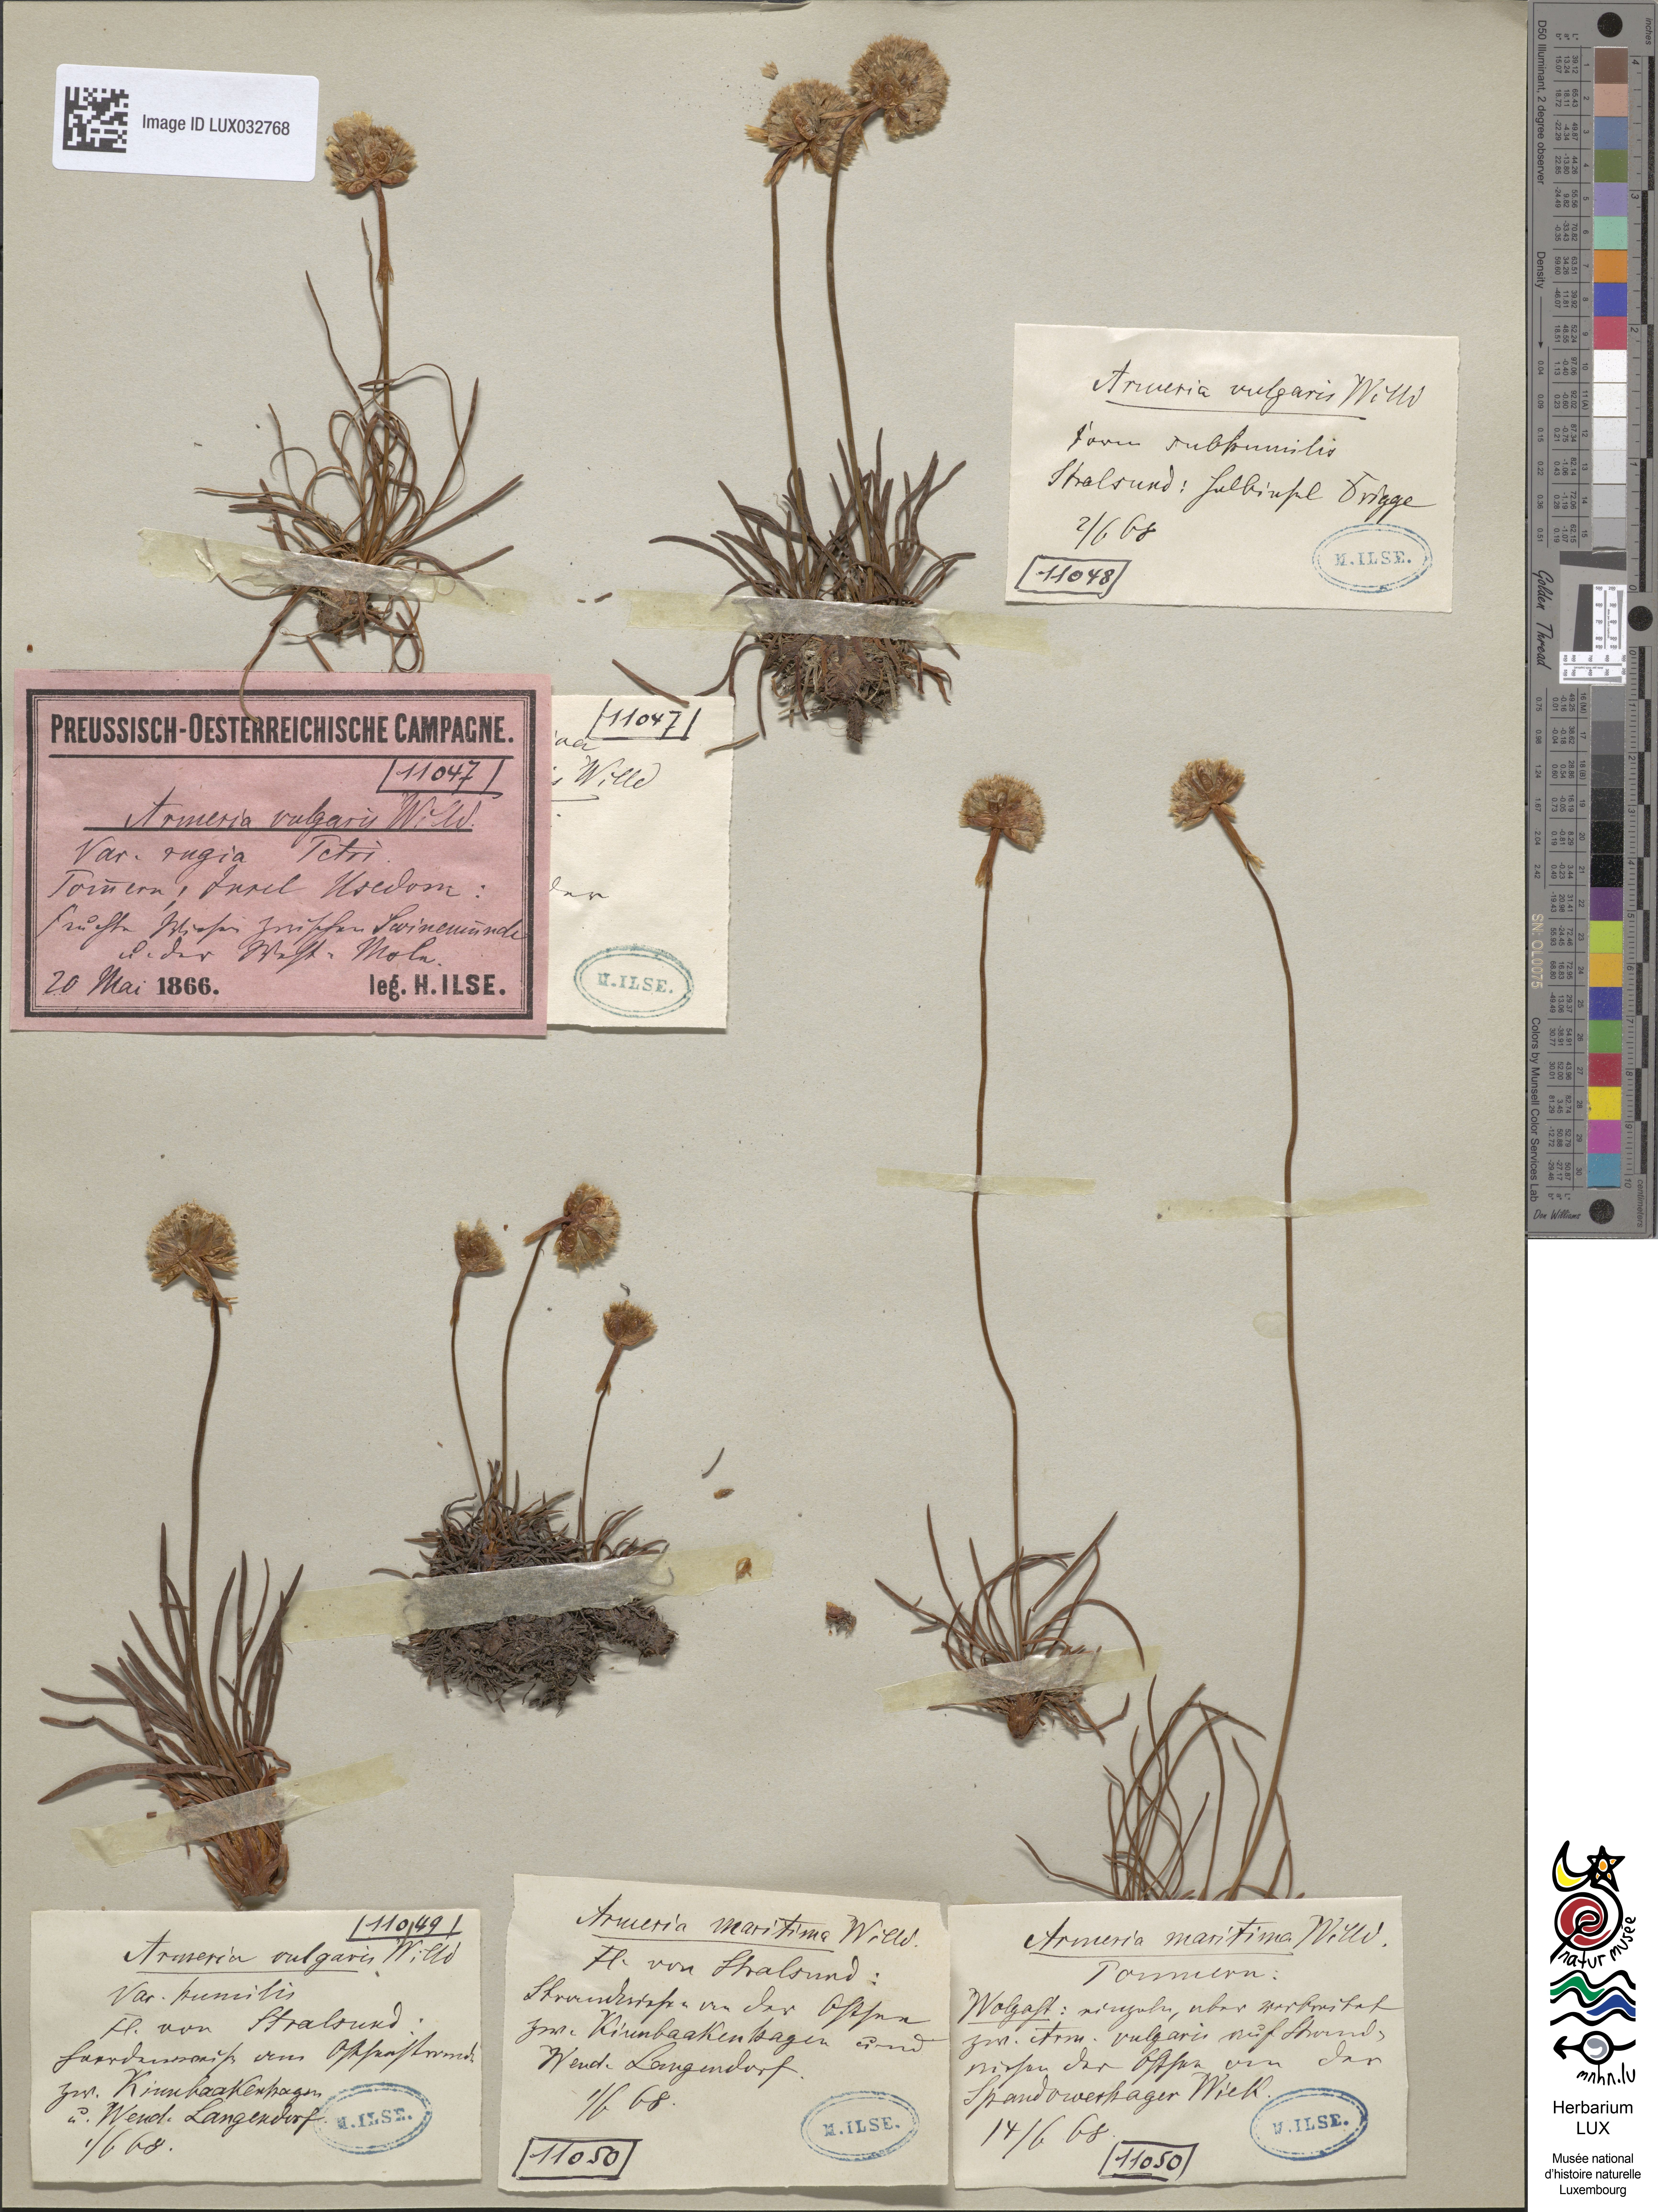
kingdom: Plantae
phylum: Tracheophyta
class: Magnoliopsida
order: Caryophyllales
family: Plumbaginaceae
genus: Armeria
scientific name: Armeria
